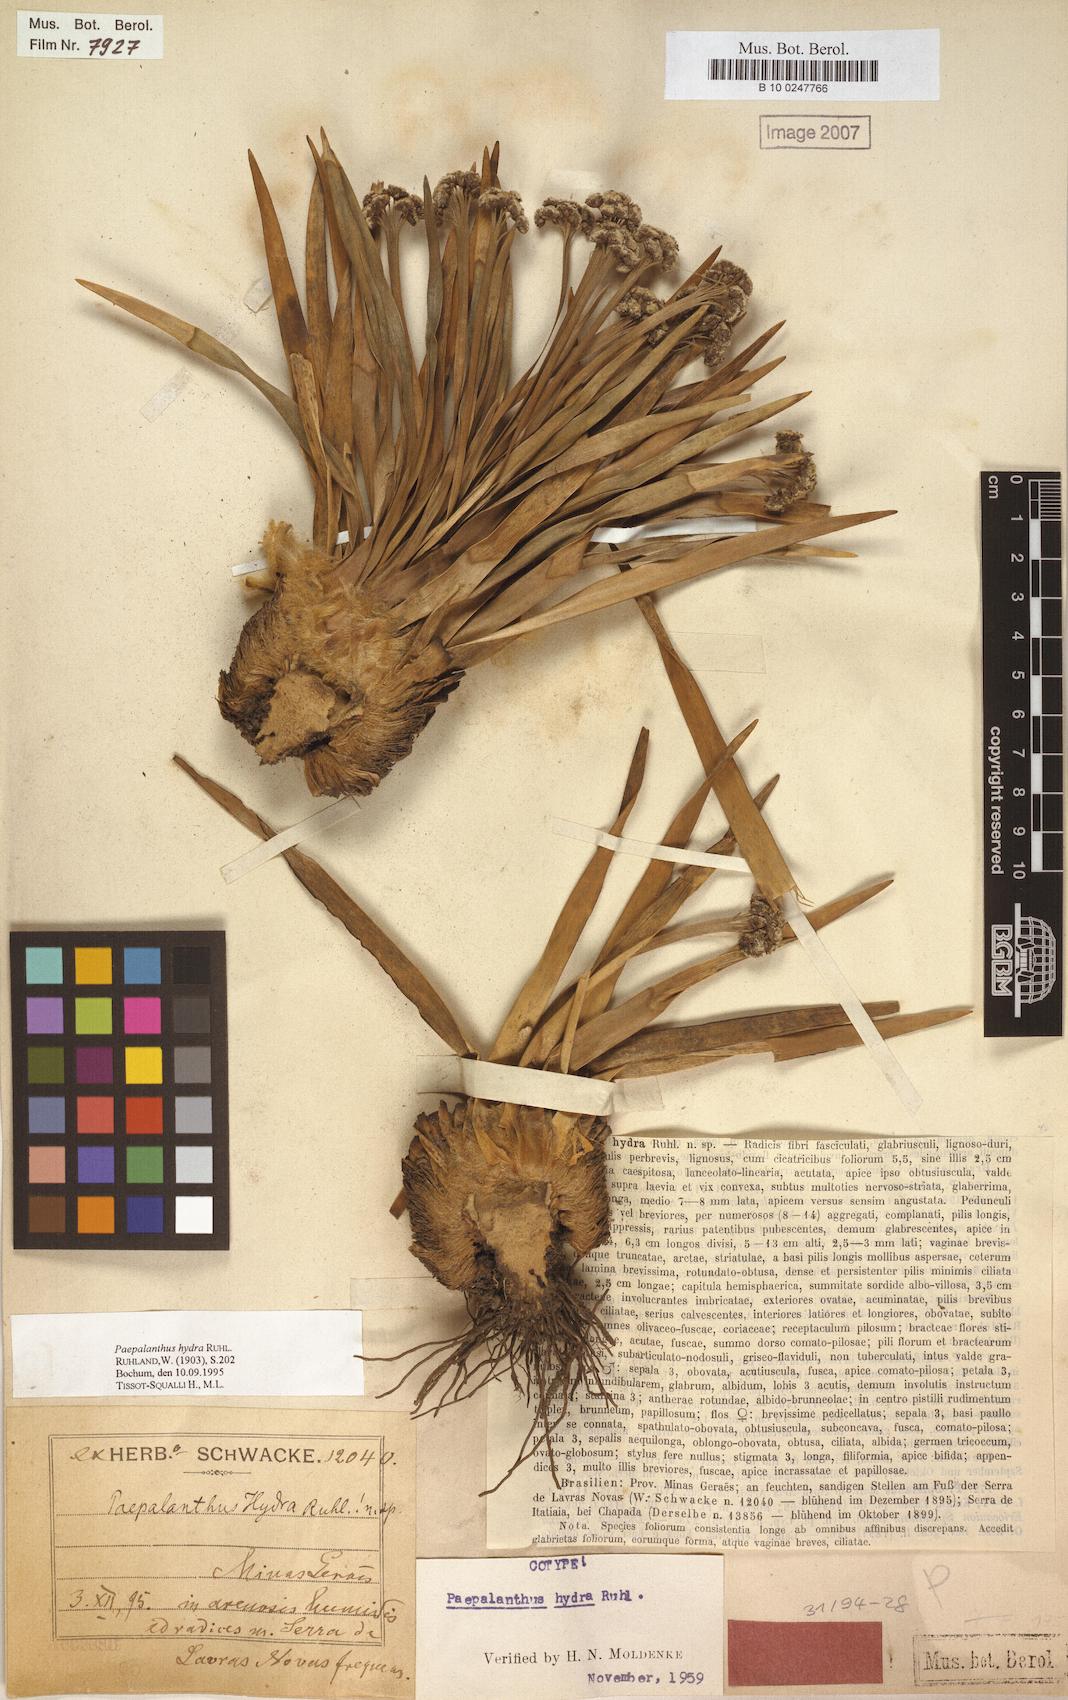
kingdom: Plantae
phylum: Tracheophyta
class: Liliopsida
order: Poales
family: Eriocaulaceae
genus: Paepalanthus
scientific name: Paepalanthus hydra
